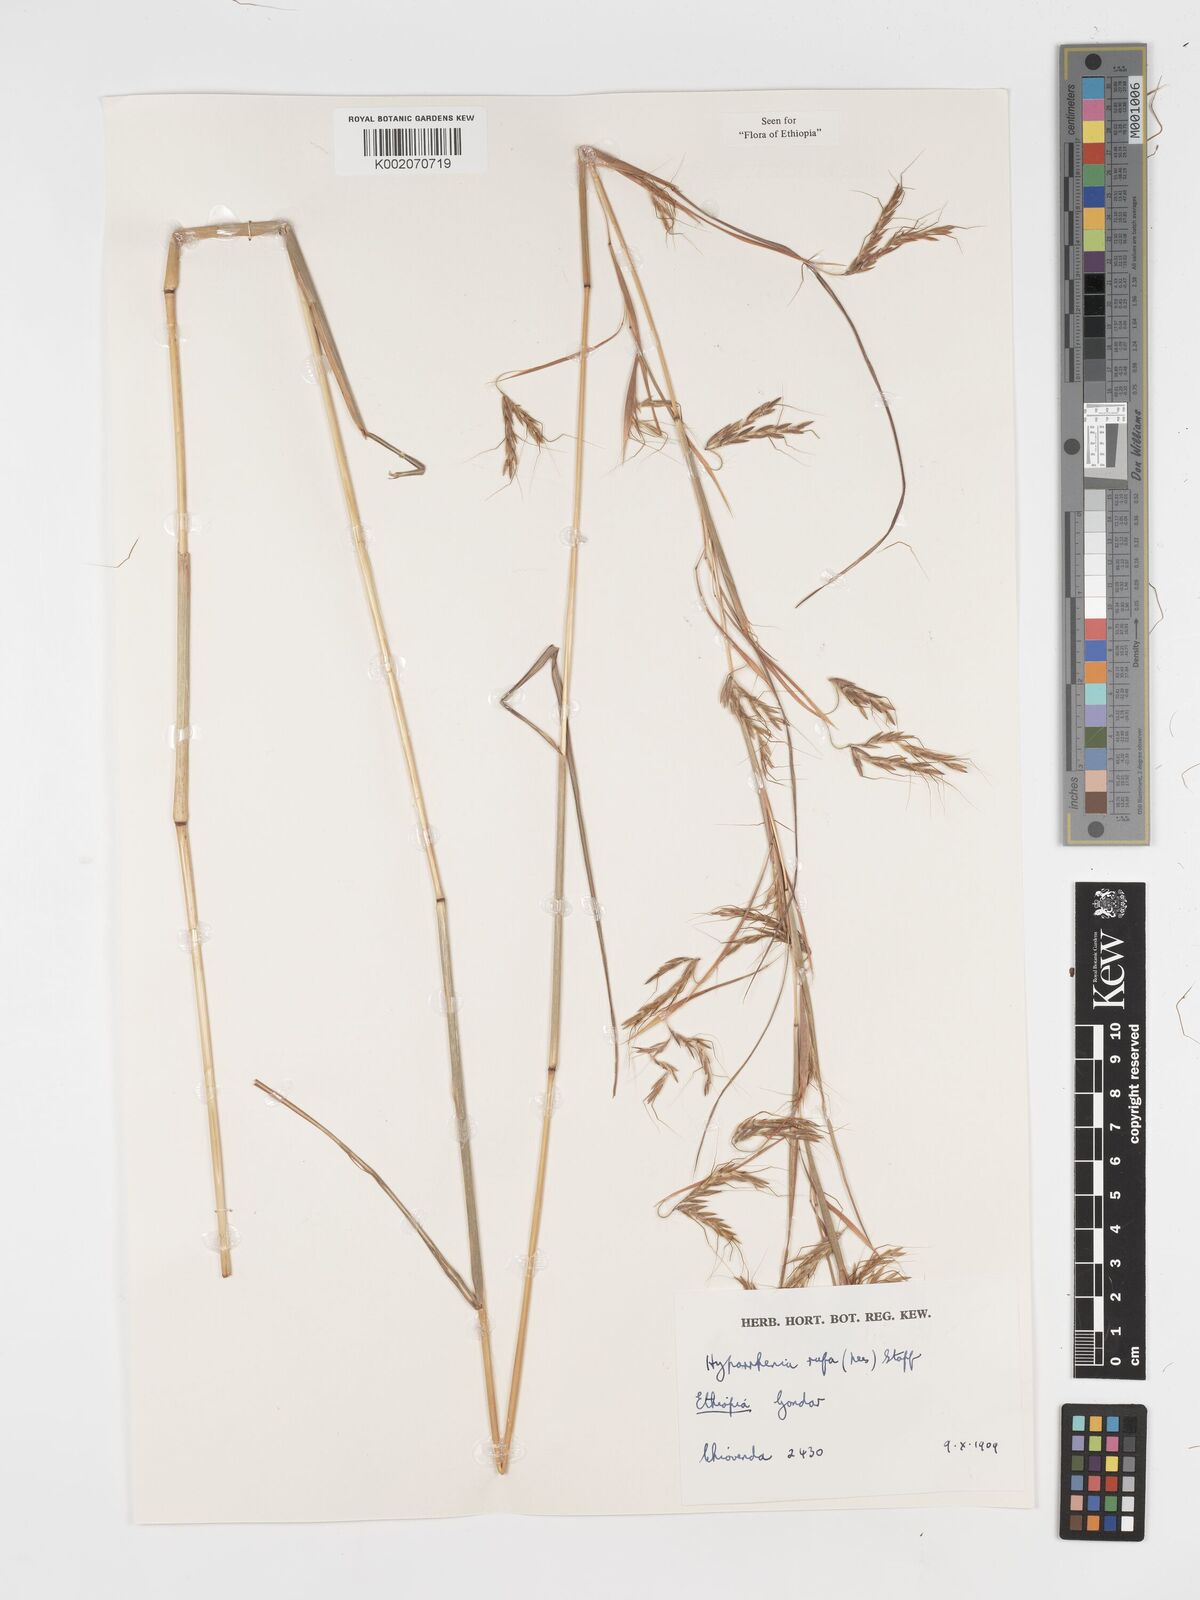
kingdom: Plantae
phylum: Tracheophyta
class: Liliopsida
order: Poales
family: Poaceae
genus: Hyparrhenia
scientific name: Hyparrhenia rufa
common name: Jaraguagrass
